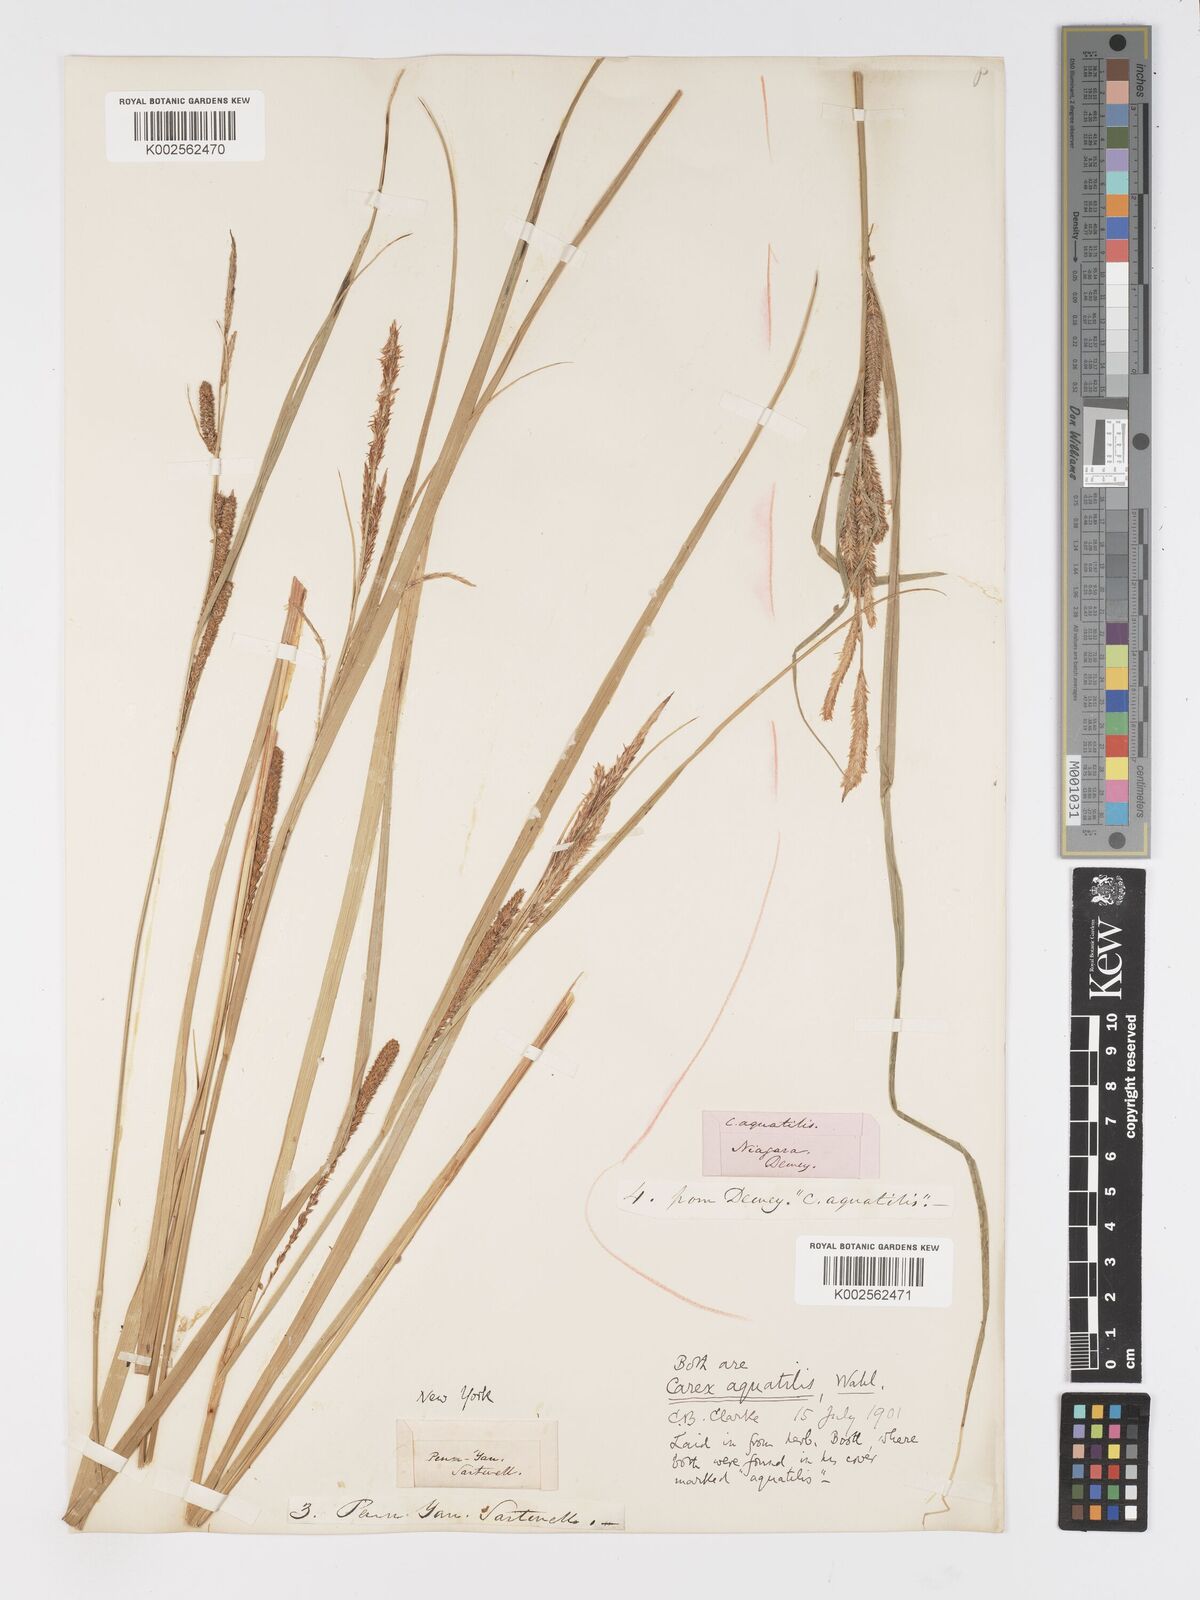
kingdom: Plantae
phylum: Tracheophyta
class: Liliopsida
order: Poales
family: Cyperaceae
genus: Carex
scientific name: Carex
